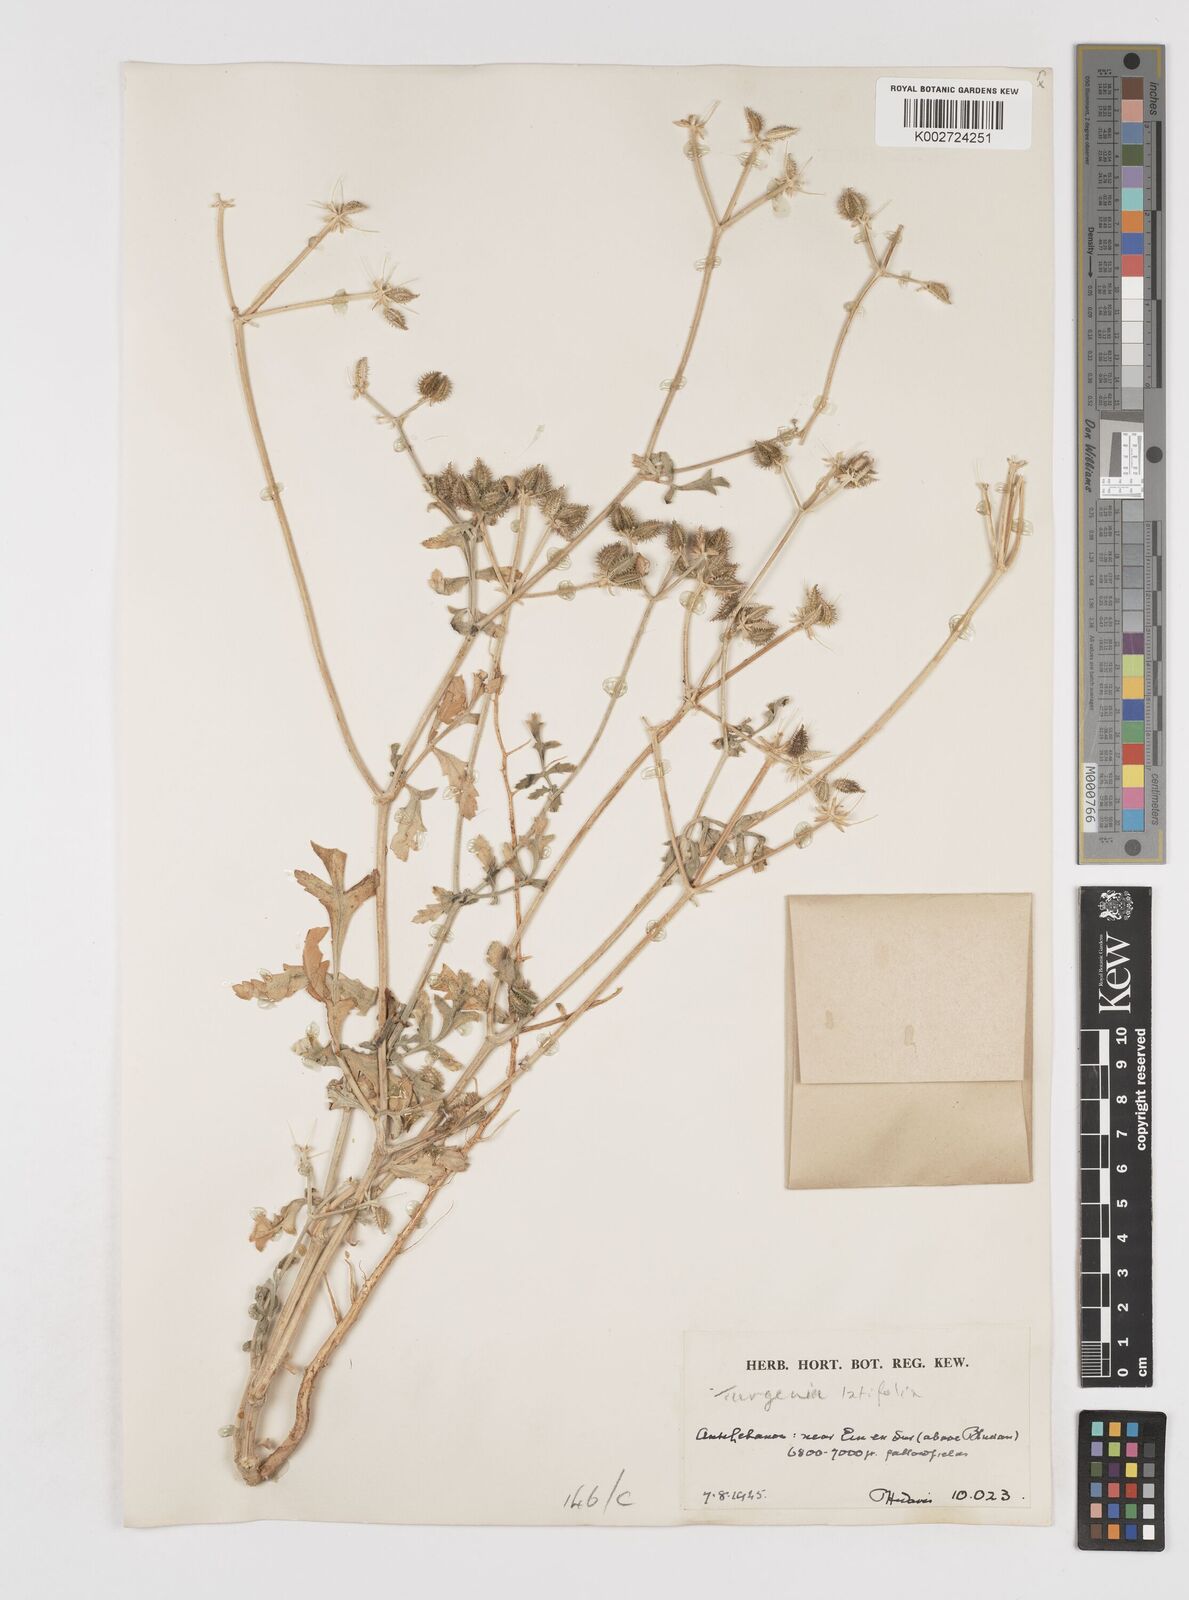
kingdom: Plantae
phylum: Tracheophyta
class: Magnoliopsida
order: Apiales
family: Apiaceae
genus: Turgenia
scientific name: Turgenia
